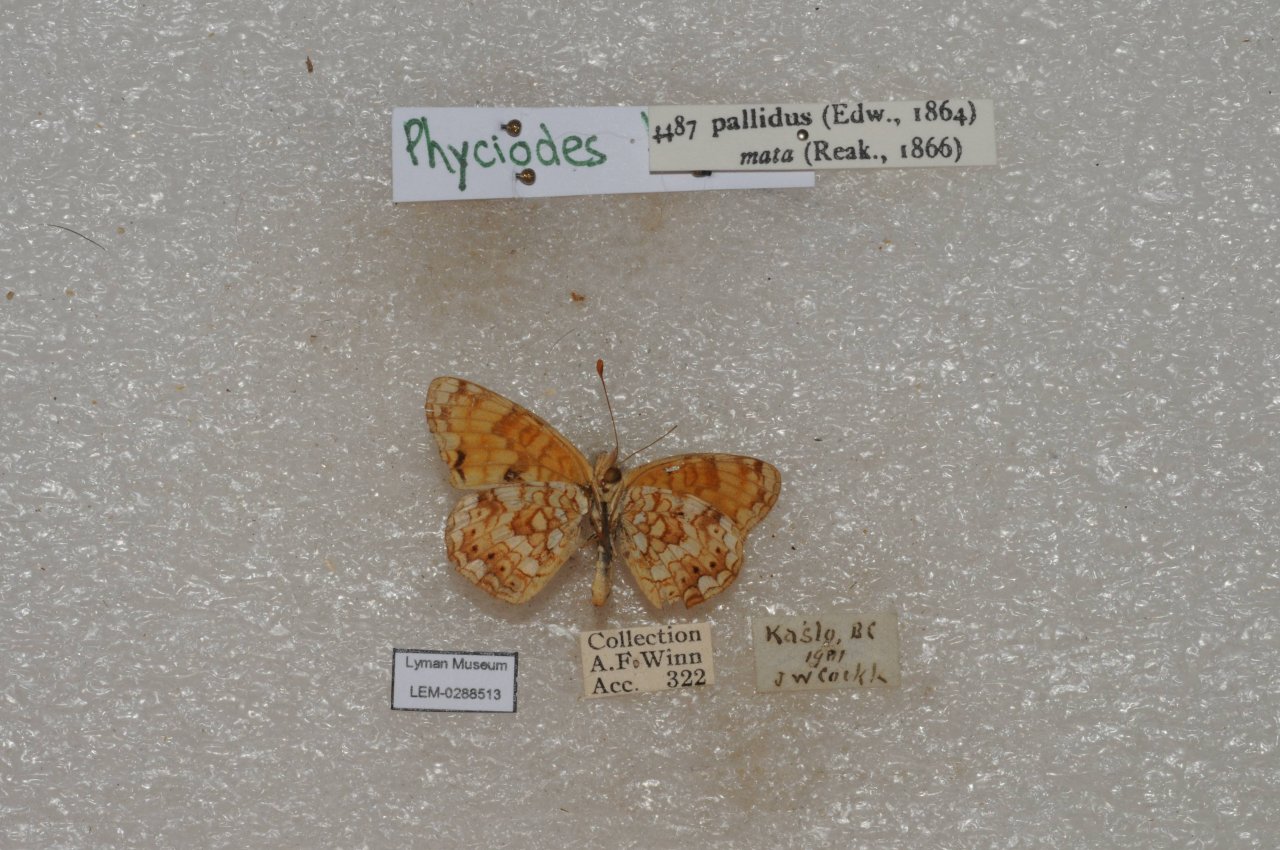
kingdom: Animalia
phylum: Arthropoda
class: Insecta
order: Lepidoptera
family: Nymphalidae
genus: Phyciodes
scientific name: Phyciodes pallida
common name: Pale Crescent
